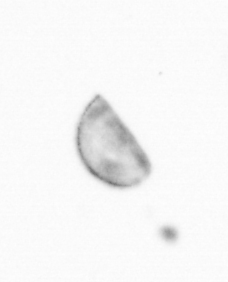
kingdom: Chromista
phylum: Ochrophyta
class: Bacillariophyceae
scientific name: Bacillariophyceae
